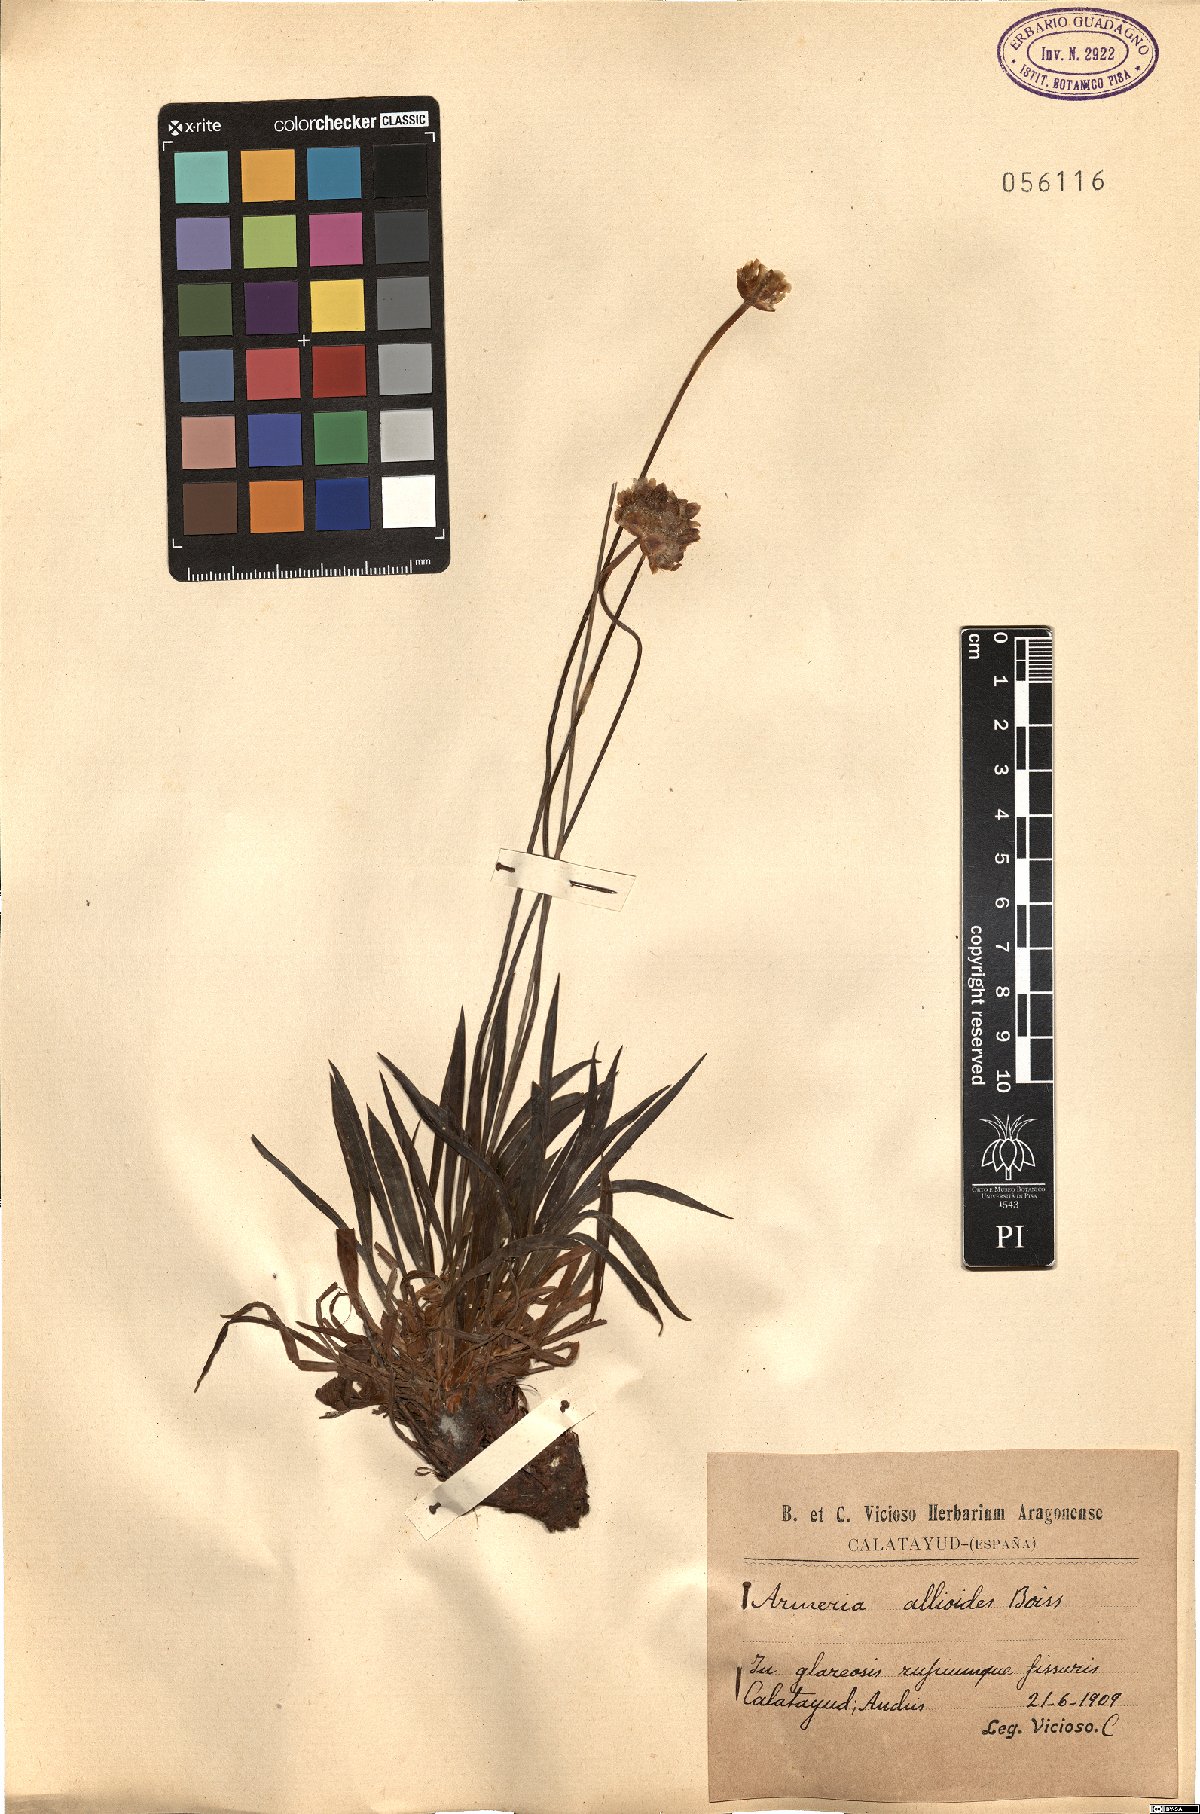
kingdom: Plantae
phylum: Tracheophyta
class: Magnoliopsida
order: Caryophyllales
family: Plumbaginaceae
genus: Armeria
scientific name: Armeria alliacea
